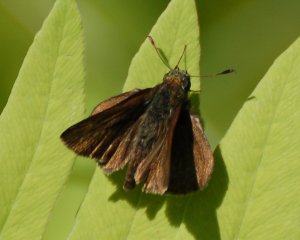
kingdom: Animalia
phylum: Arthropoda
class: Insecta
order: Lepidoptera
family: Hesperiidae
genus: Euphyes
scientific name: Euphyes vestris
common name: Dun Skipper
